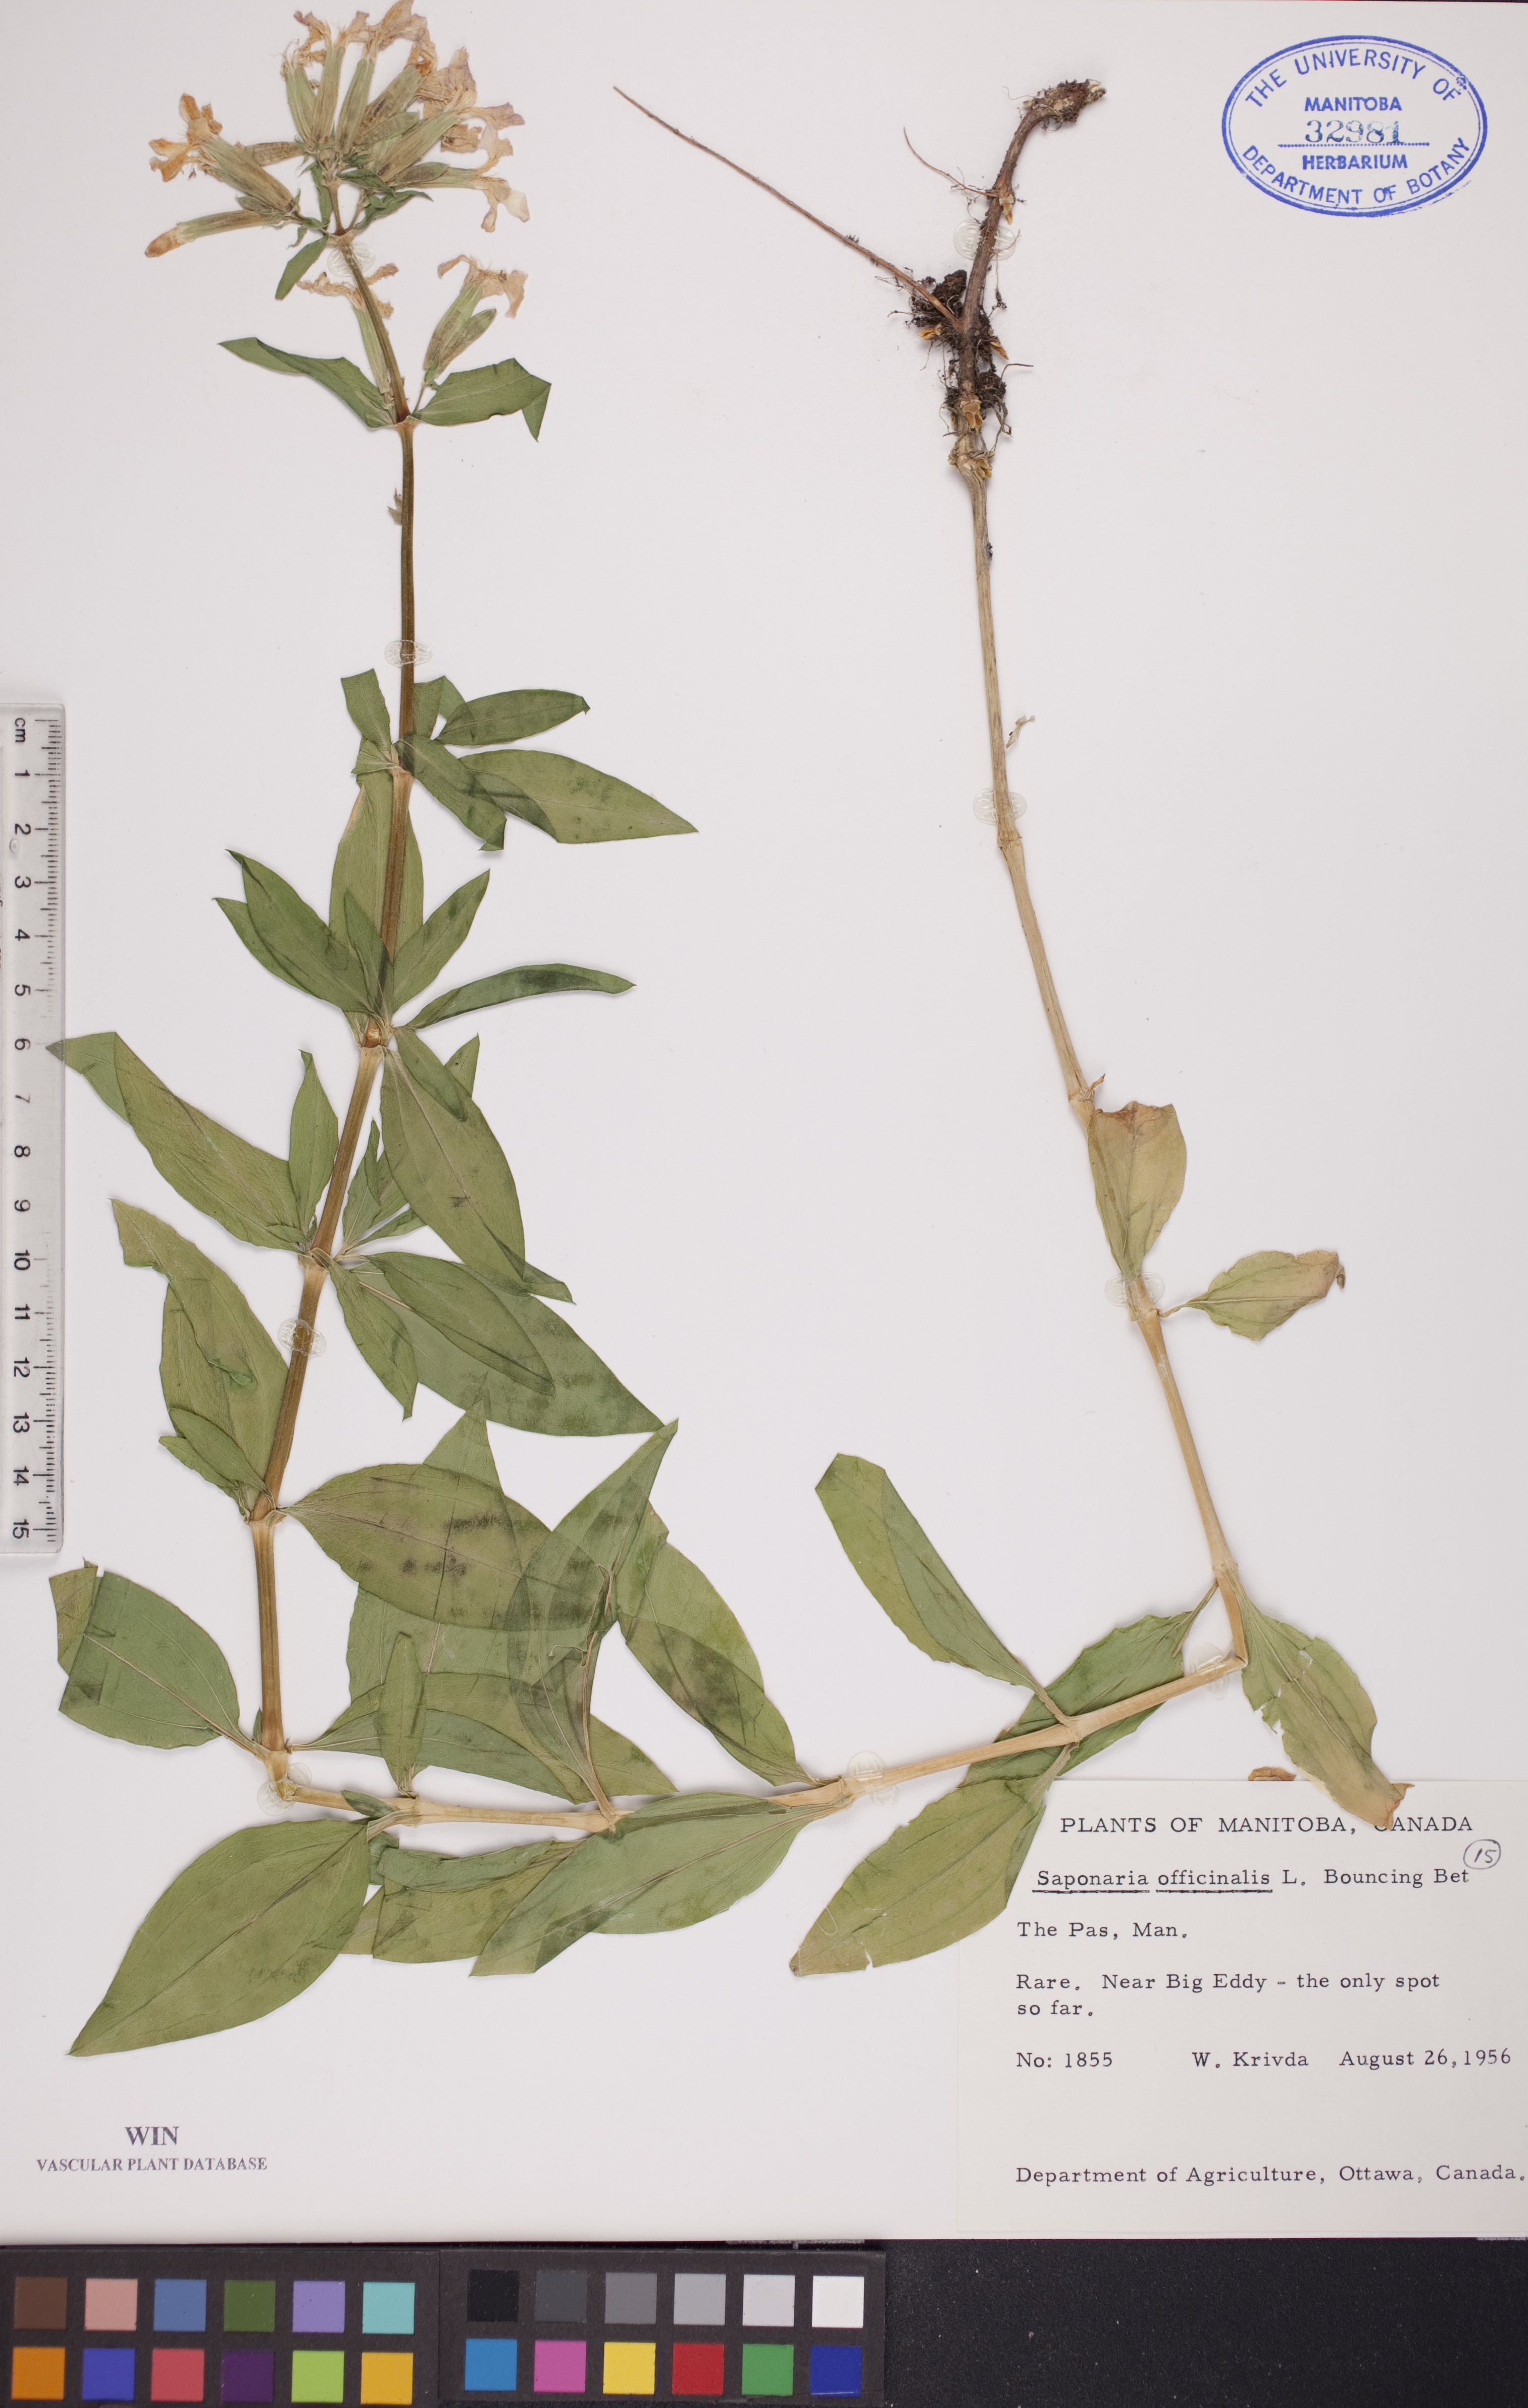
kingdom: Plantae
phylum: Tracheophyta
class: Magnoliopsida
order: Caryophyllales
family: Caryophyllaceae
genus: Saponaria
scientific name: Saponaria officinalis
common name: Soapwort
